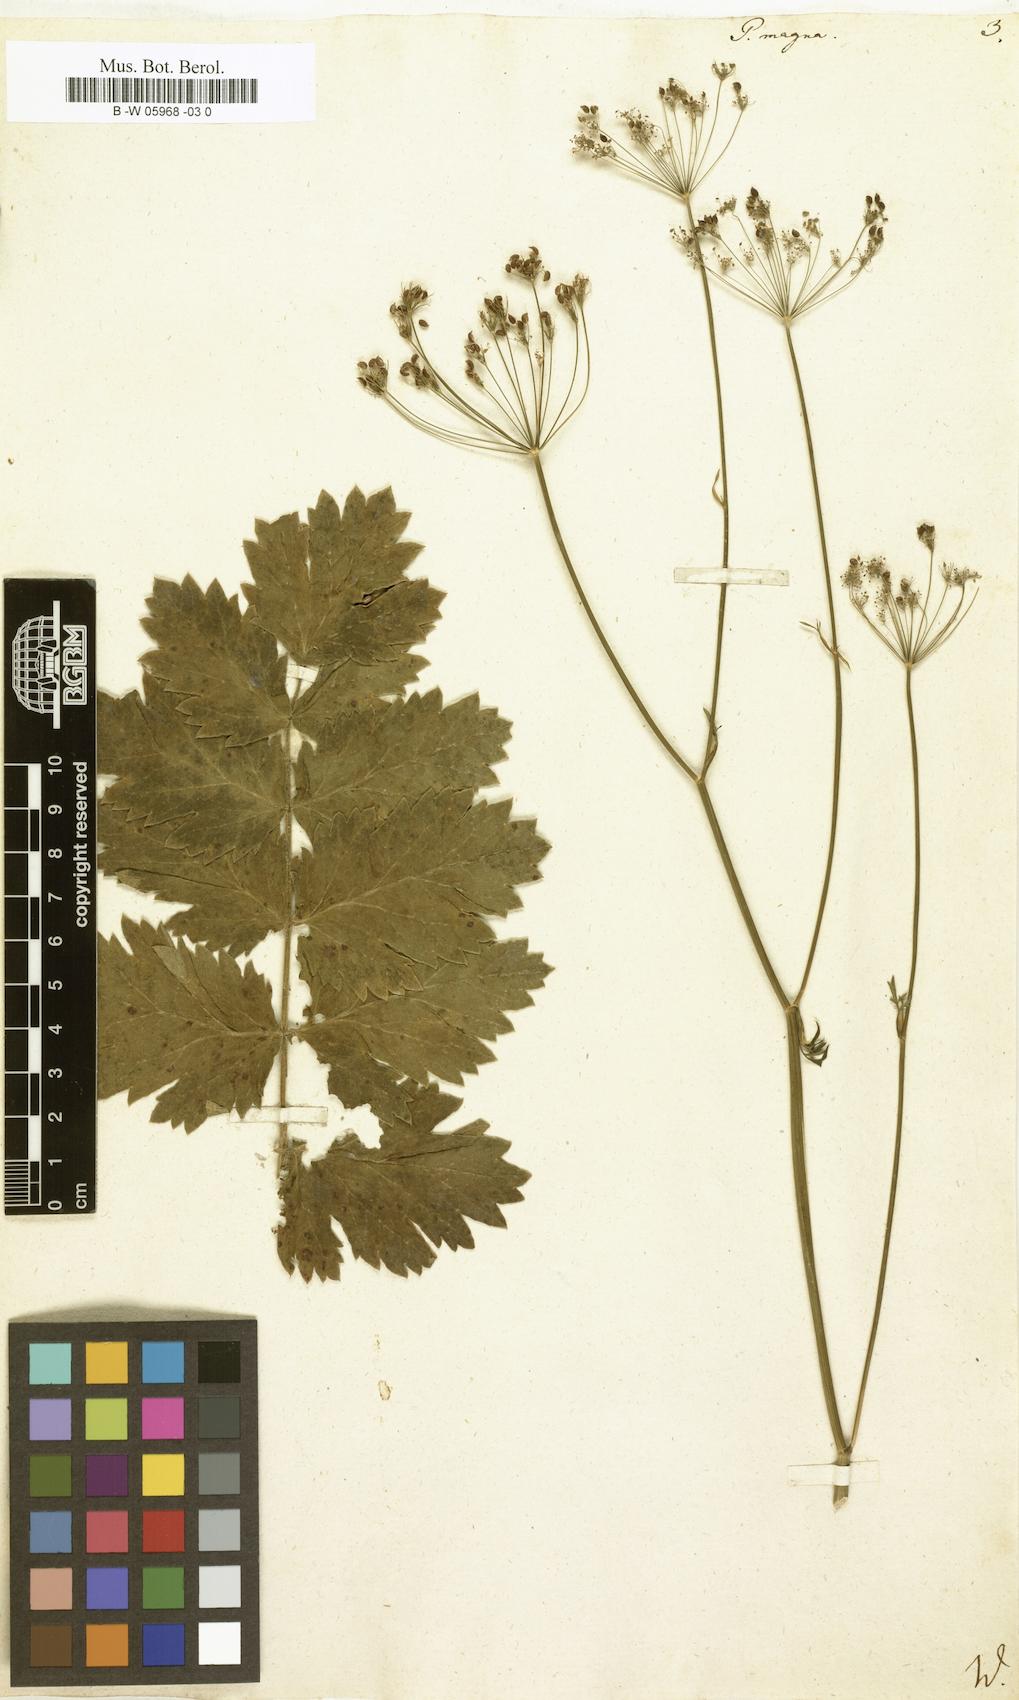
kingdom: Plantae
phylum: Tracheophyta
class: Magnoliopsida
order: Apiales
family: Apiaceae
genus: Pimpinella
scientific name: Pimpinella
